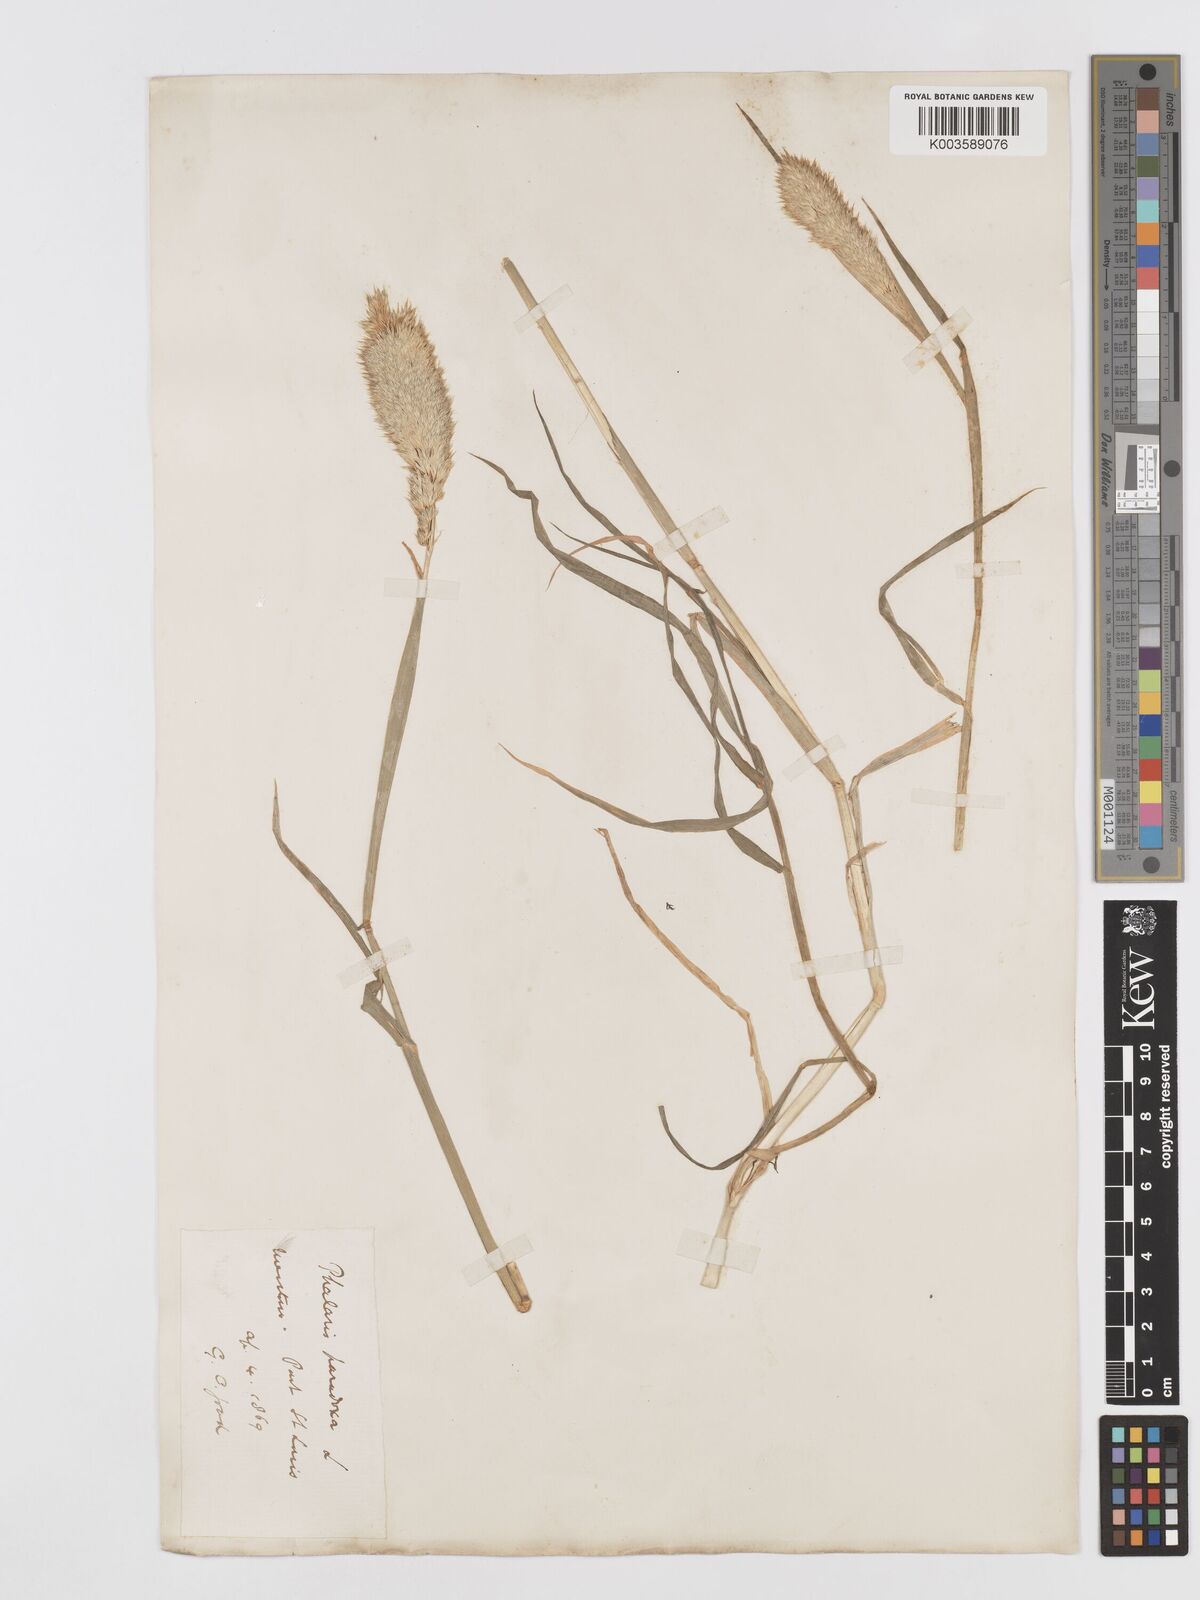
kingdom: Plantae
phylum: Tracheophyta
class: Liliopsida
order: Poales
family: Poaceae
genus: Phalaris
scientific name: Phalaris paradoxa
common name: Awned canary-grass
